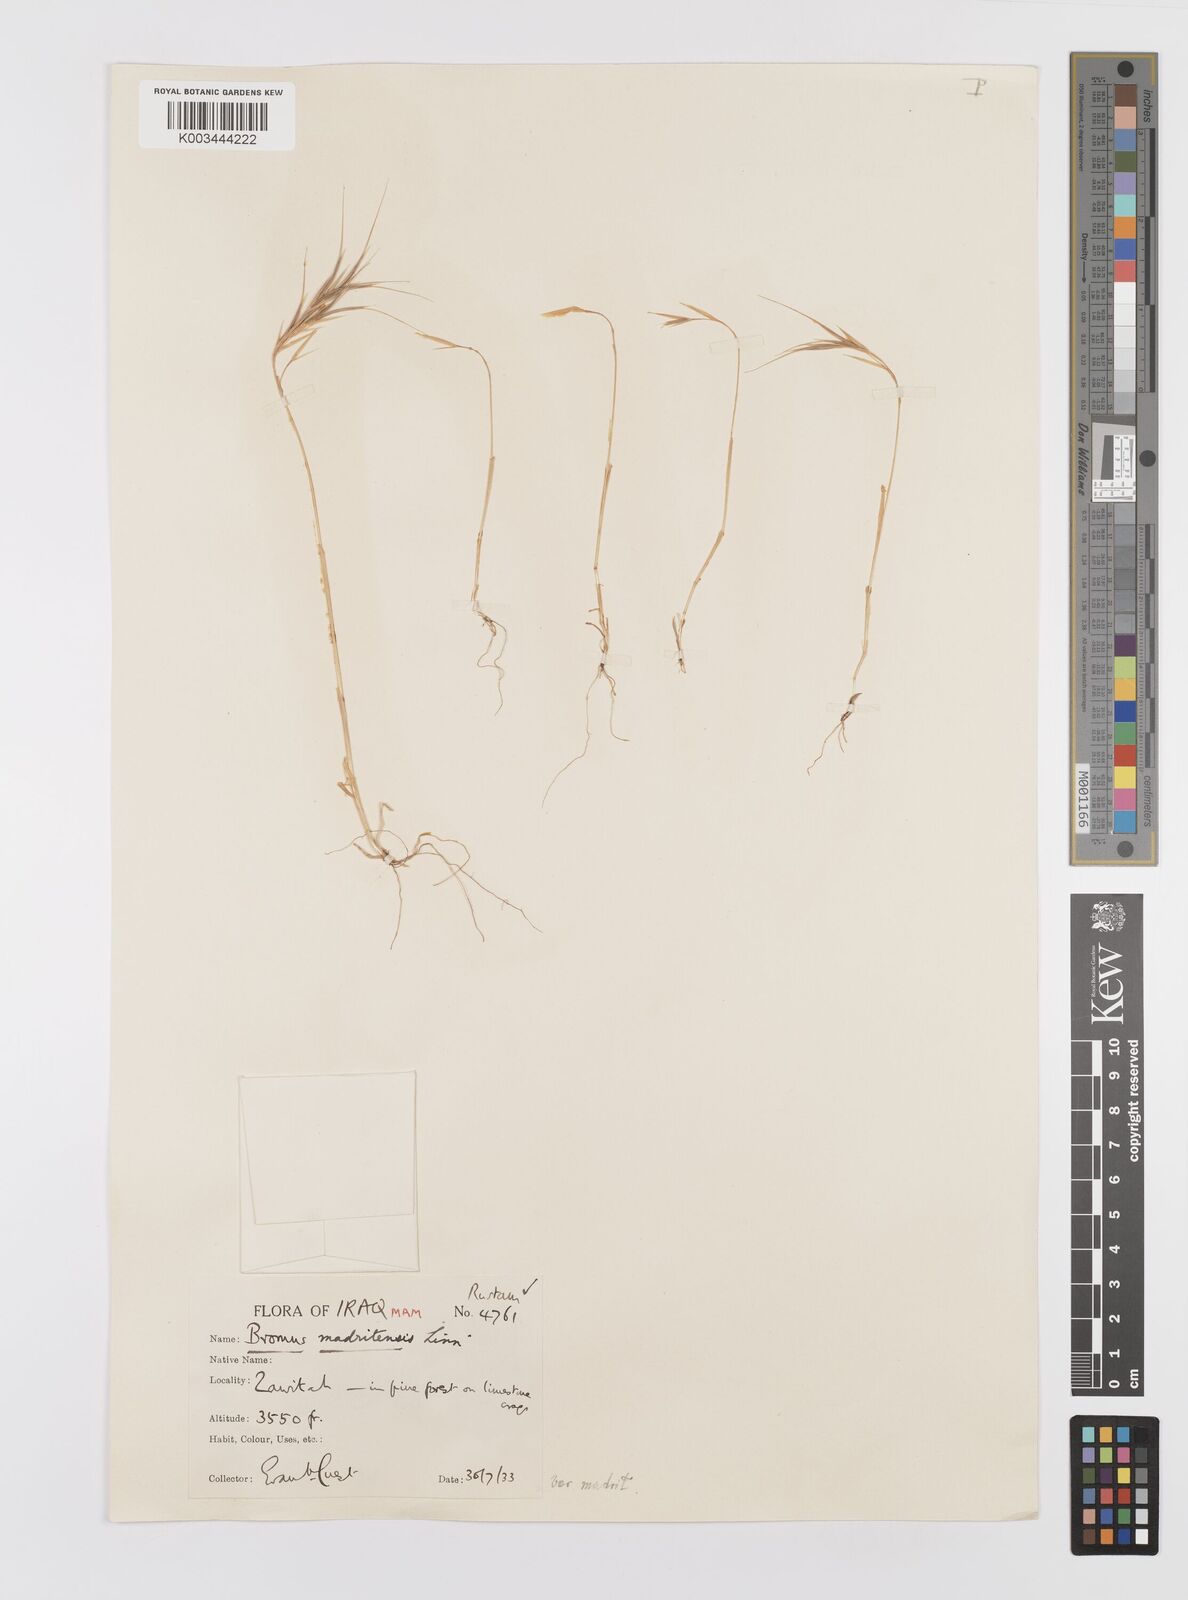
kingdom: Plantae
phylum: Tracheophyta
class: Liliopsida
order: Poales
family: Poaceae
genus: Bromus
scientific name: Bromus madritensis
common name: Compact brome
